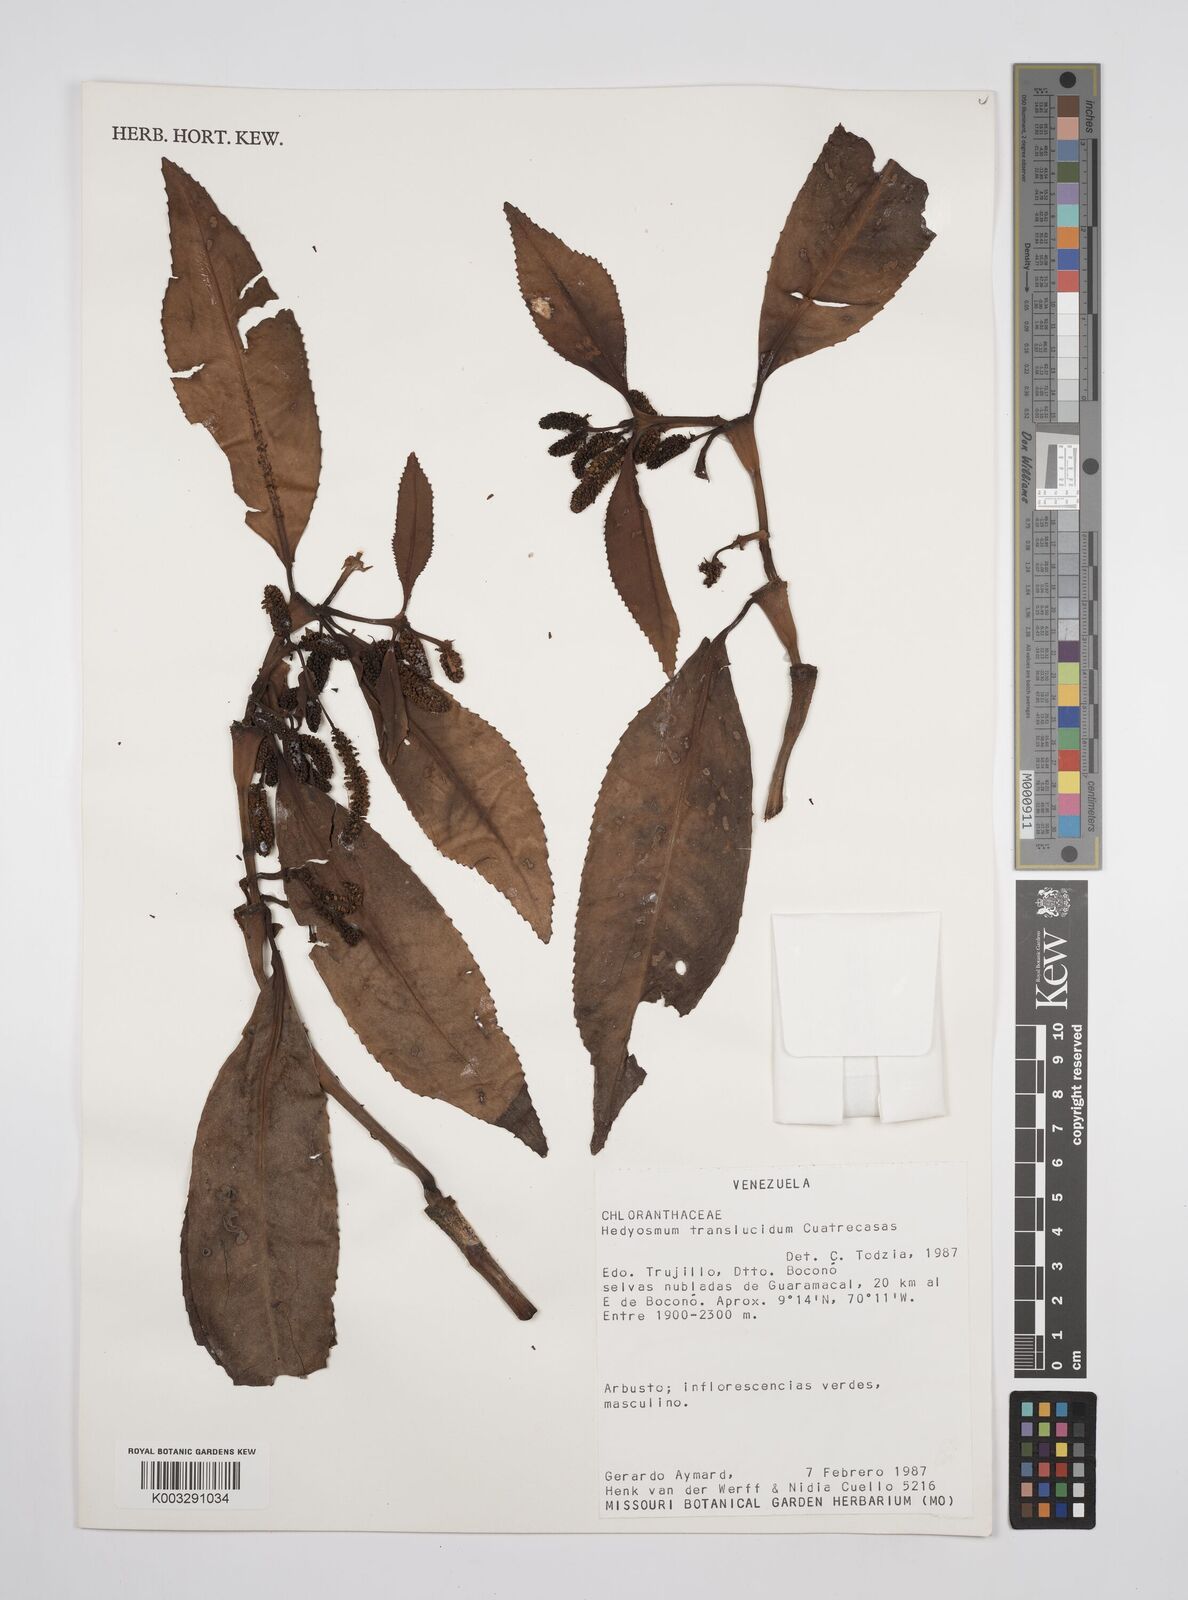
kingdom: Plantae
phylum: Tracheophyta
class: Magnoliopsida
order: Chloranthales
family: Chloranthaceae
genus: Hedyosmum
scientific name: Hedyosmum translucidum
